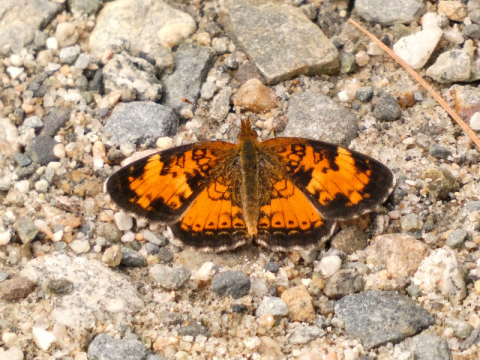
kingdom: Animalia
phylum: Arthropoda
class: Insecta
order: Lepidoptera
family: Nymphalidae
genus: Phyciodes
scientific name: Phyciodes tharos
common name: Northern Crescent
